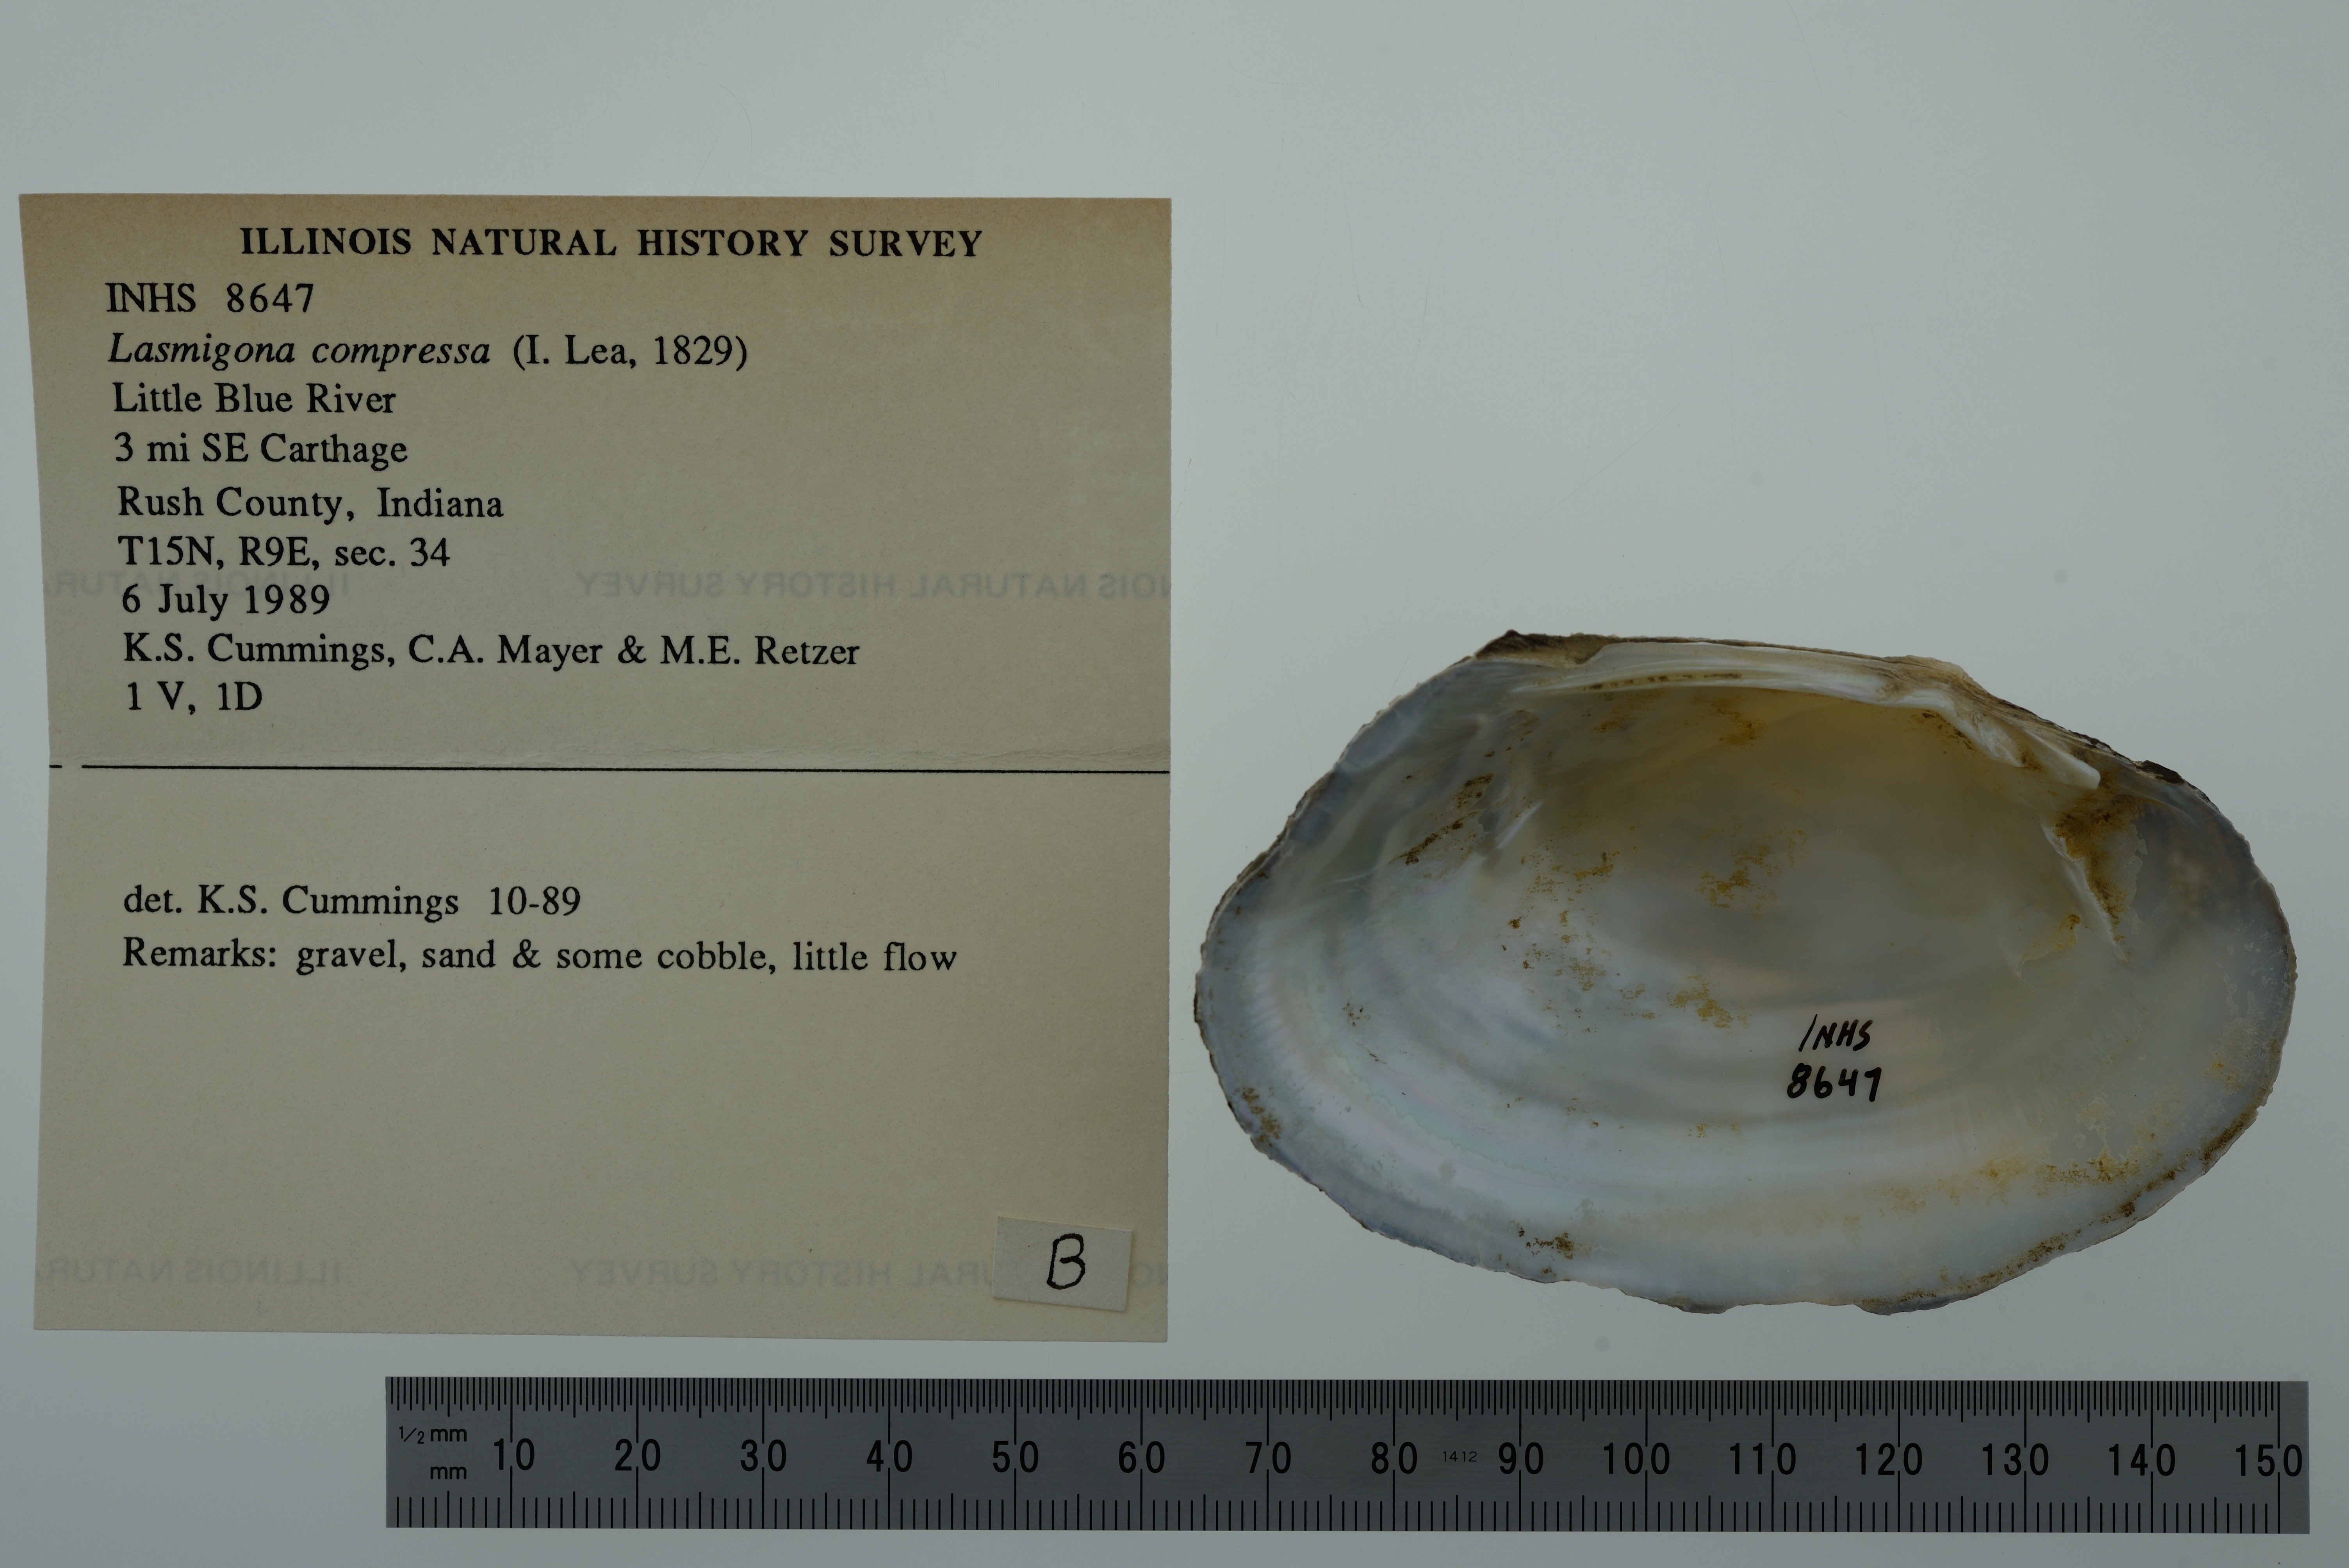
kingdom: Animalia
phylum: Mollusca
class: Bivalvia
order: Unionida
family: Unionidae
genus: Lasmigona
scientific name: Lasmigona compressa
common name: Creek heelsplitter
